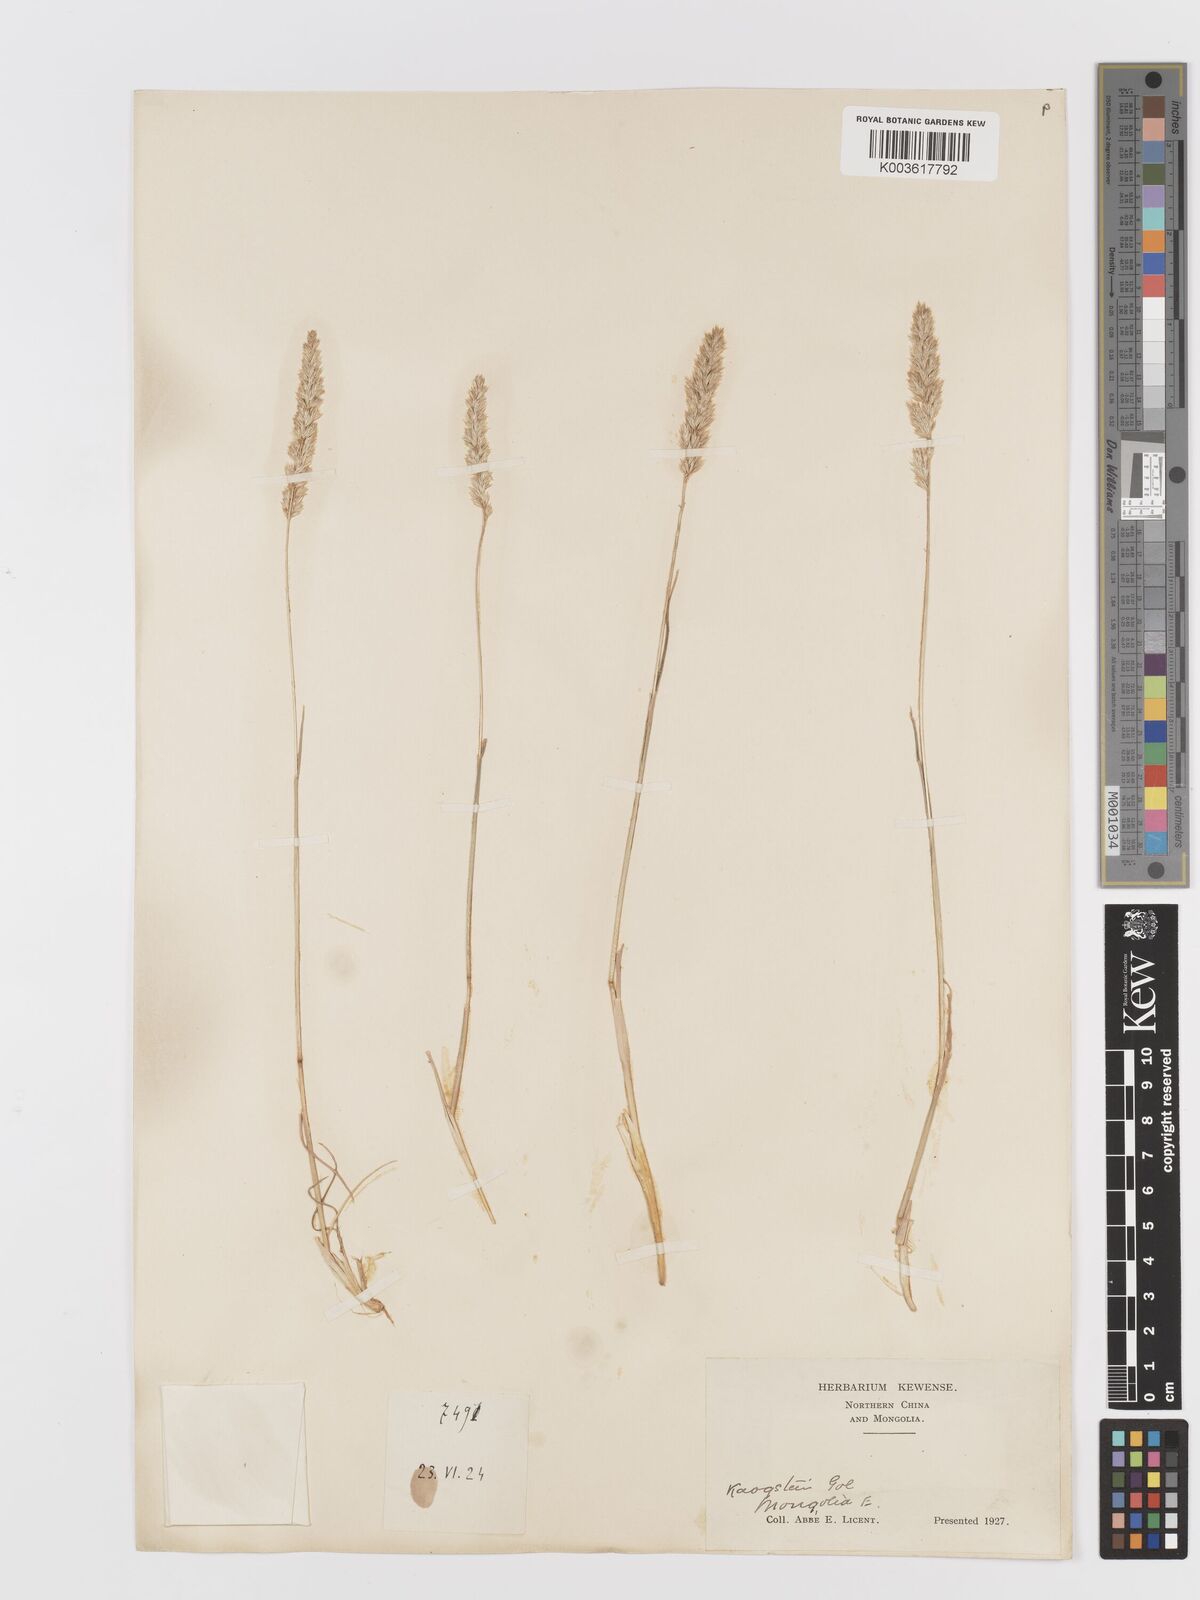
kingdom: Plantae
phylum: Tracheophyta
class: Liliopsida
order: Poales
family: Poaceae
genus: Koeleria
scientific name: Koeleria macrantha
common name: Crested hair-grass
